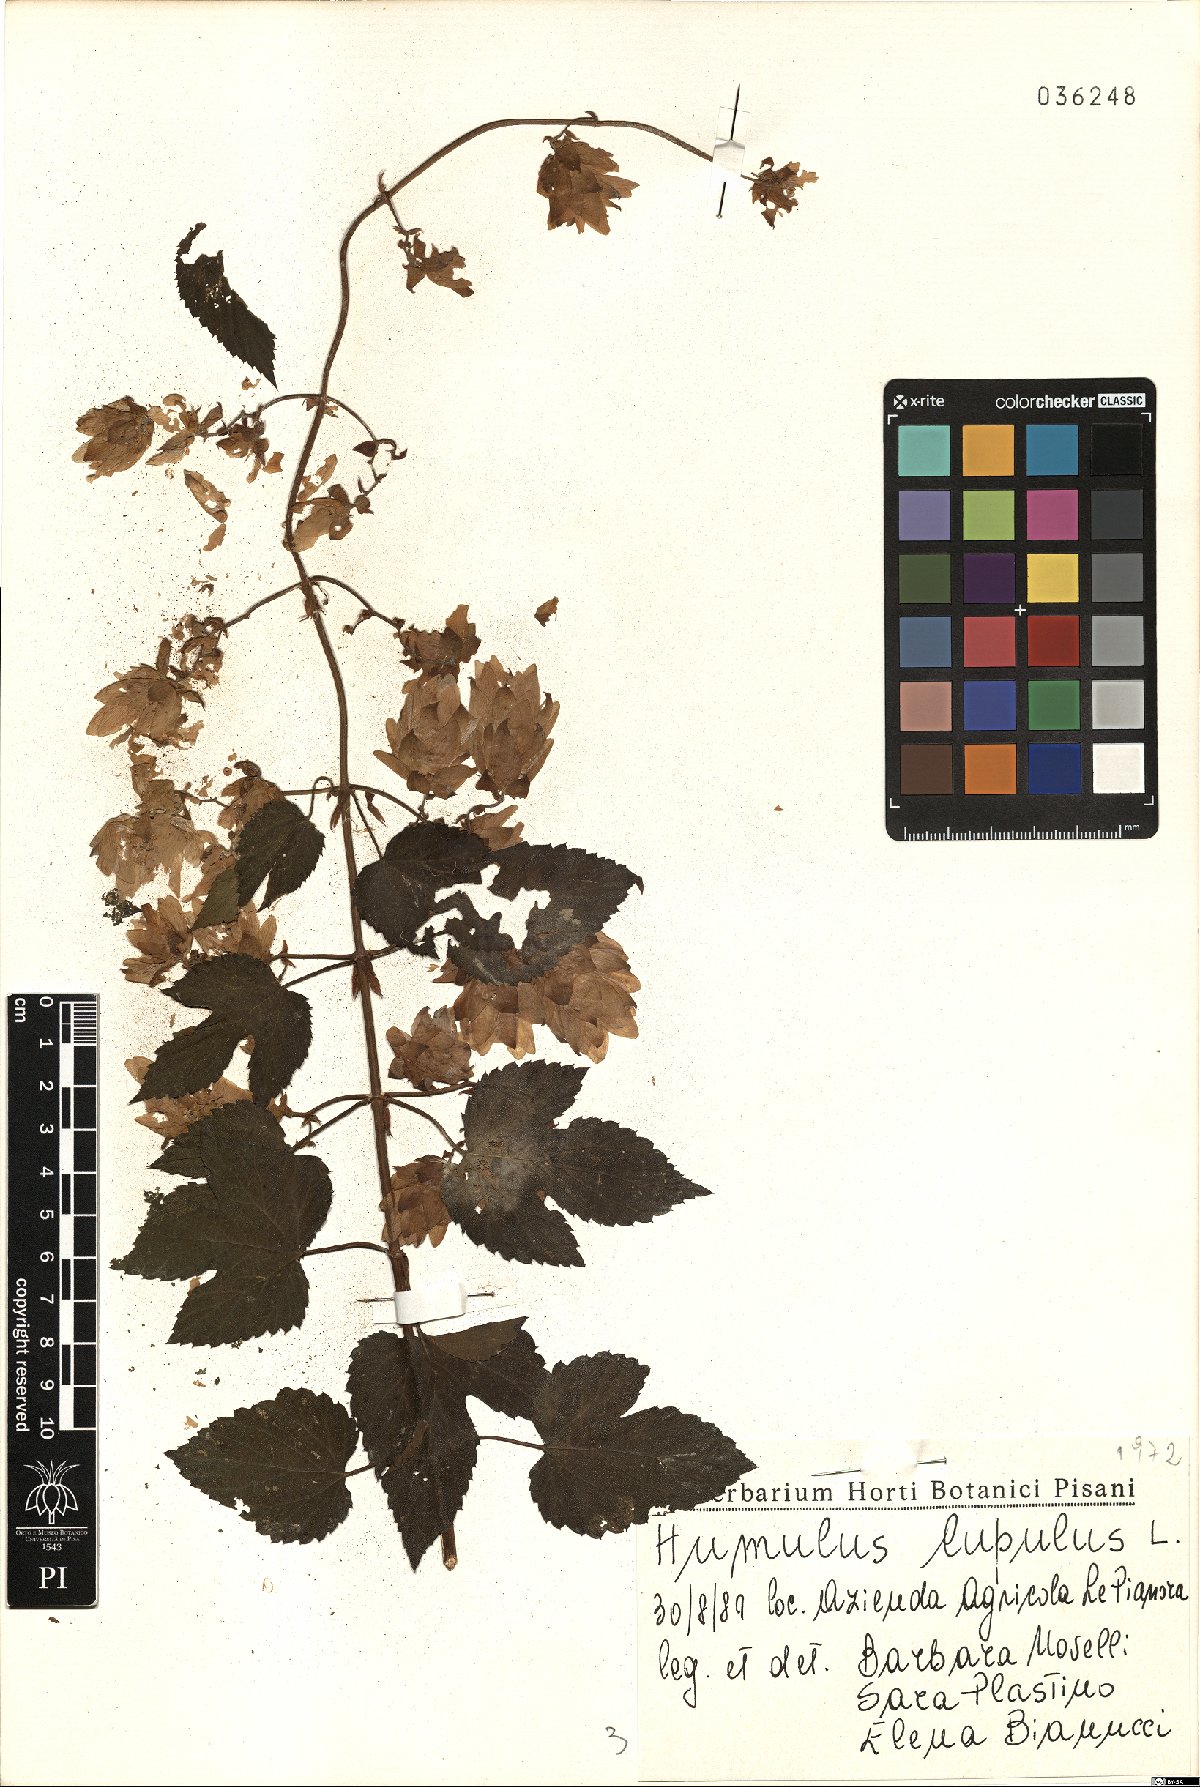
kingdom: Plantae
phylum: Tracheophyta
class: Magnoliopsida
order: Rosales
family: Cannabaceae
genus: Humulus
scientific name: Humulus lupulus
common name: Hop
